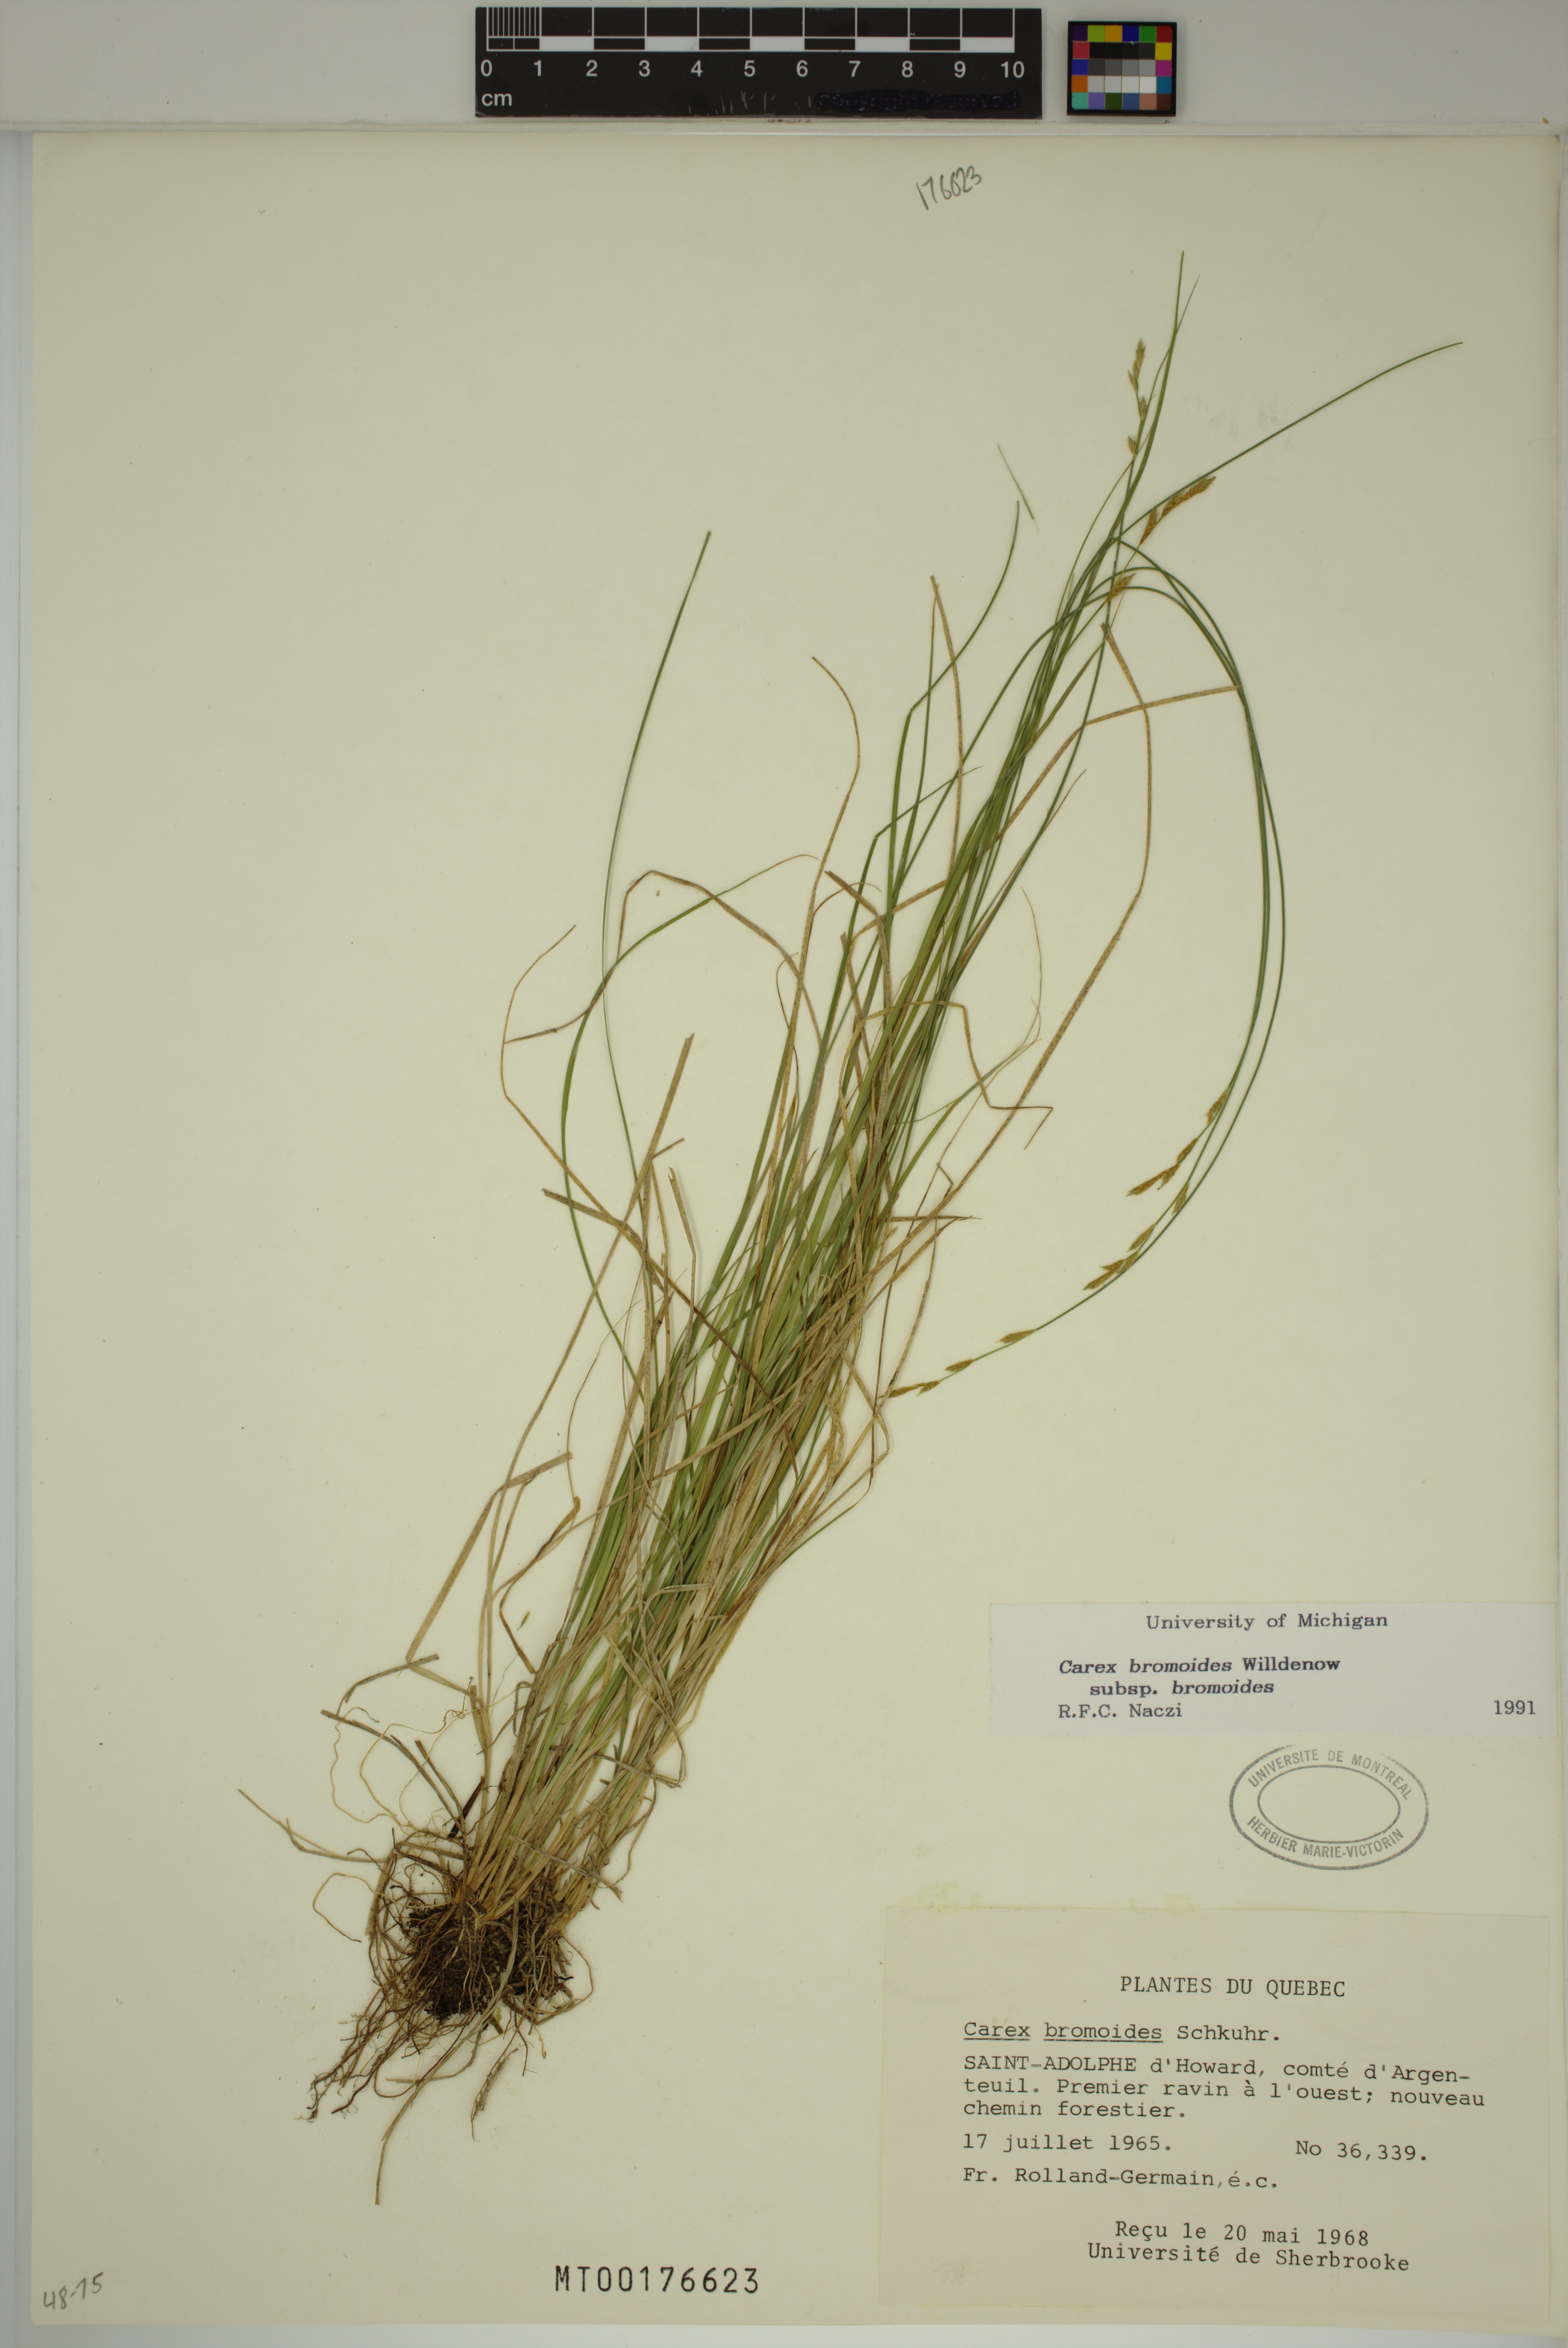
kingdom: Plantae
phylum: Tracheophyta
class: Liliopsida
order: Poales
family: Cyperaceae
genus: Carex
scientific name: Carex bromoides
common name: Brome hummock sedge
